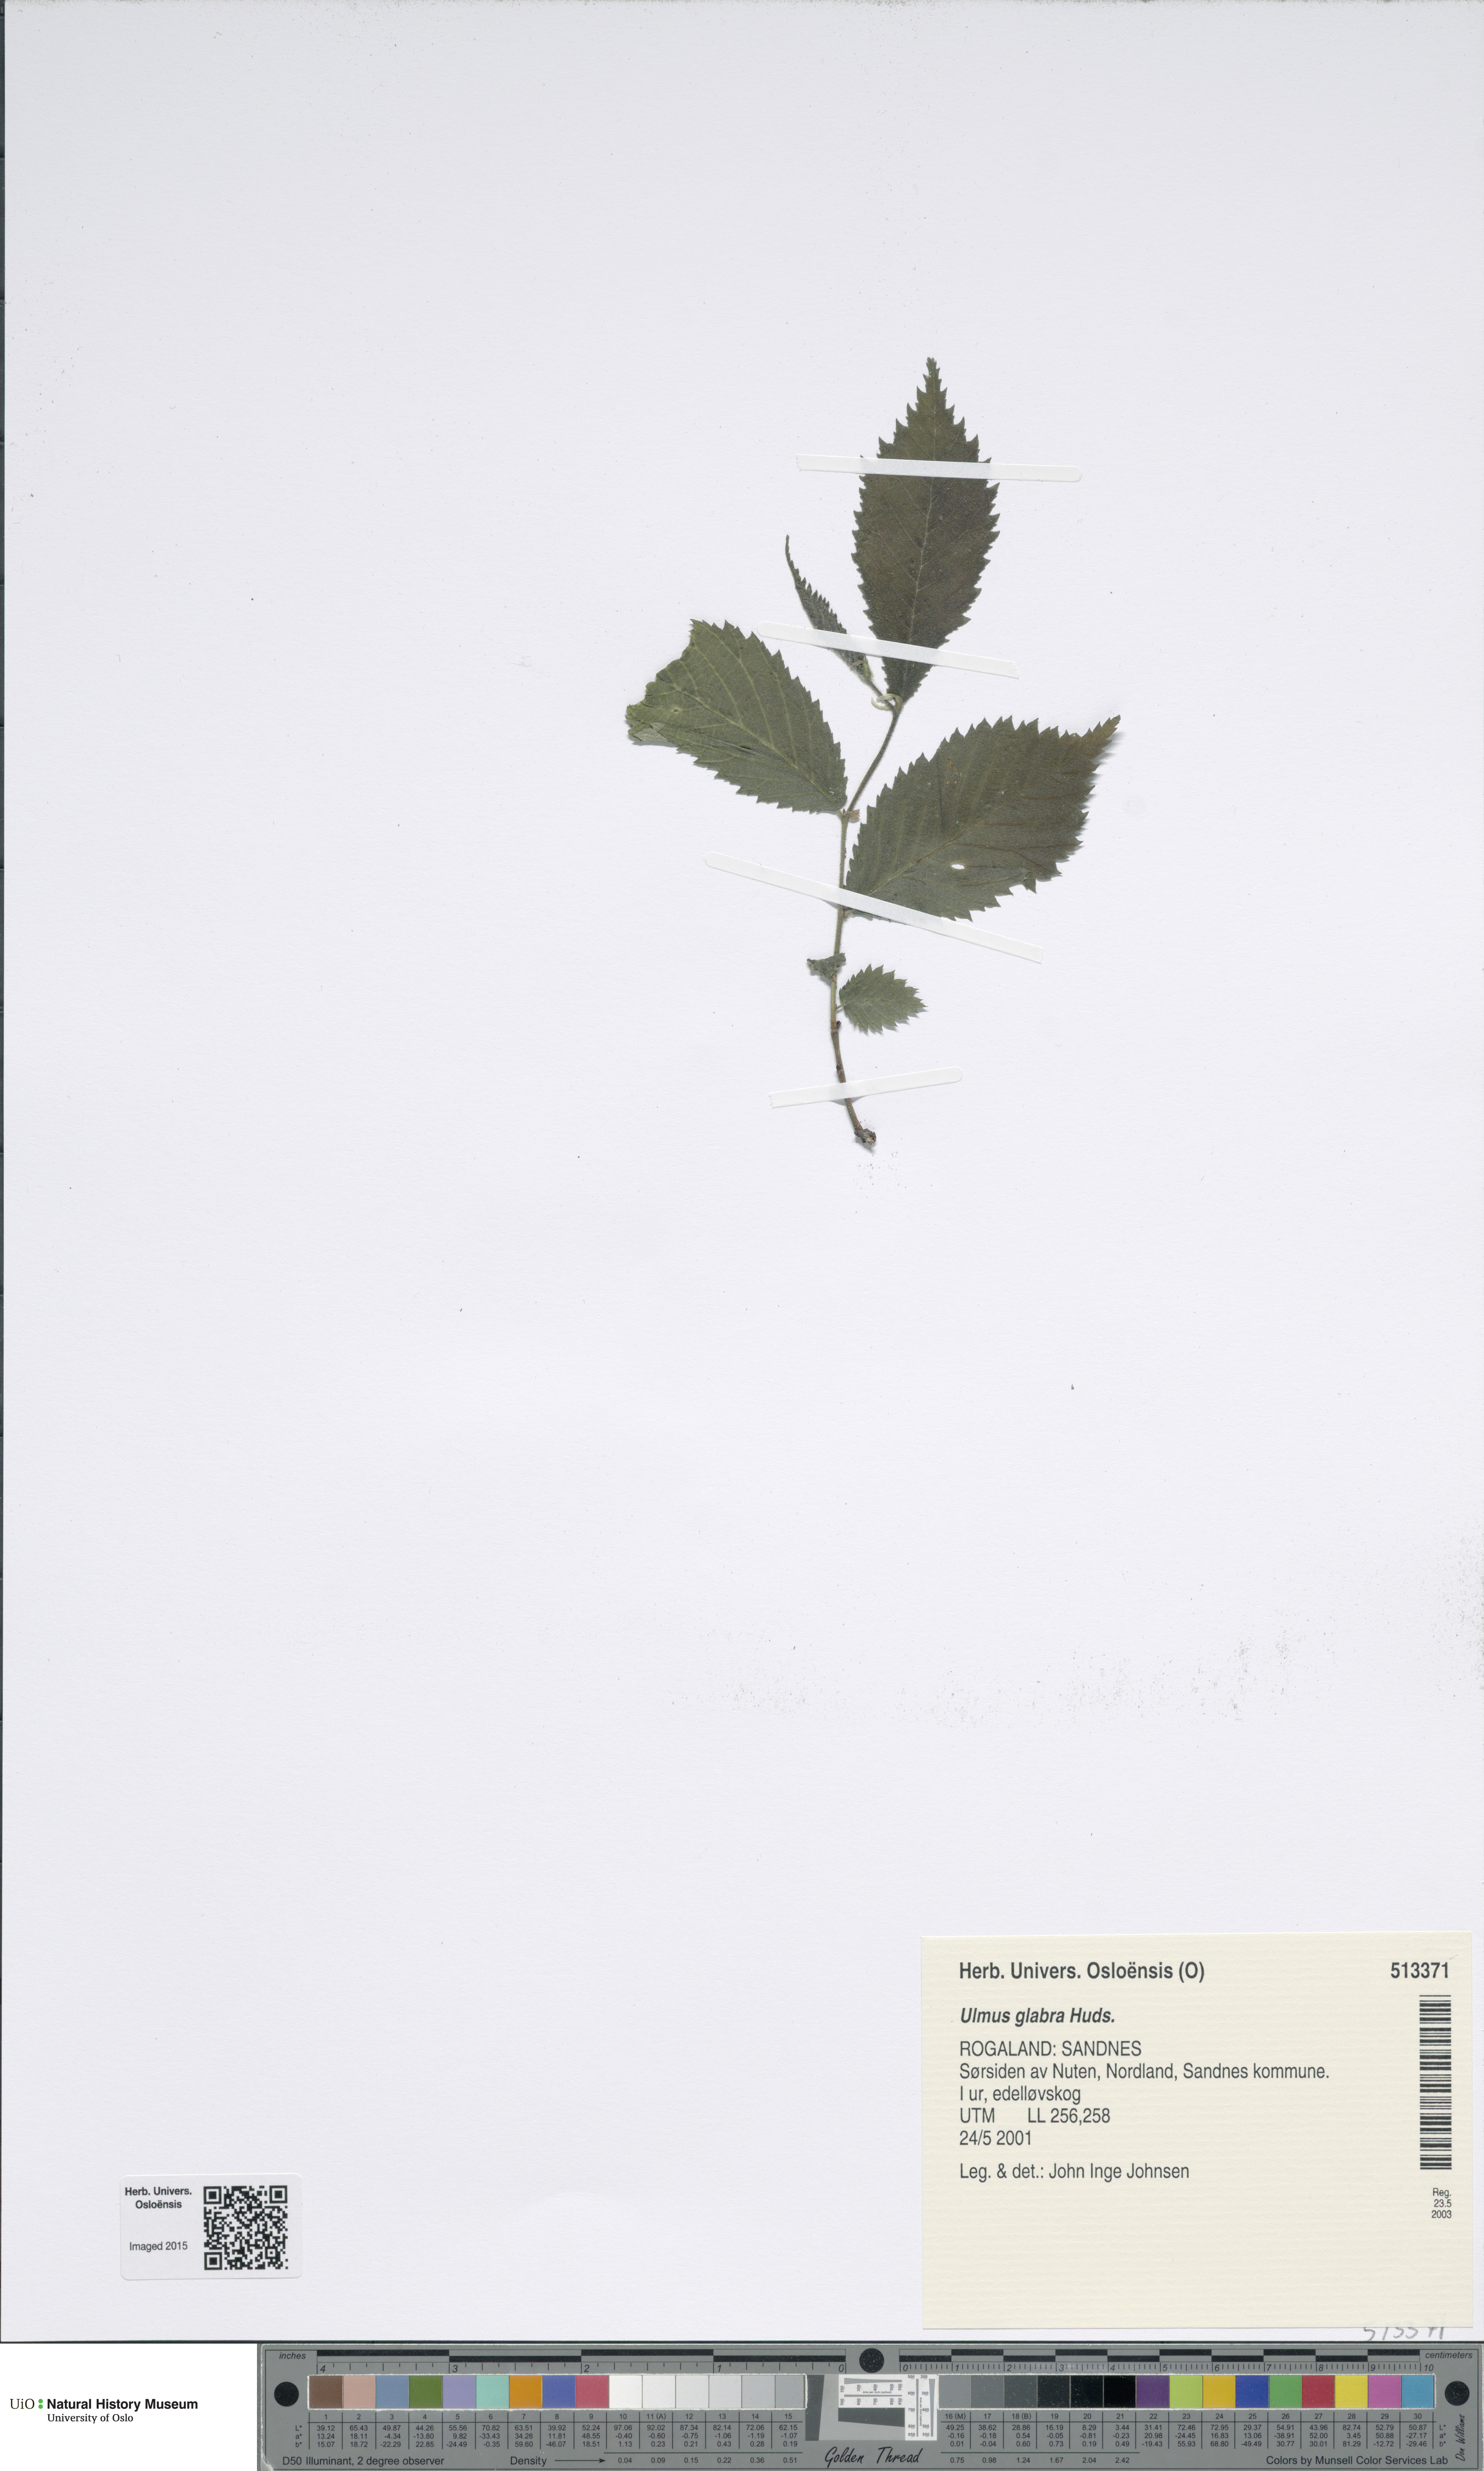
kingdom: Plantae
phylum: Tracheophyta
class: Magnoliopsida
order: Rosales
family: Ulmaceae
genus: Ulmus
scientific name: Ulmus glabra
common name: Wych elm
